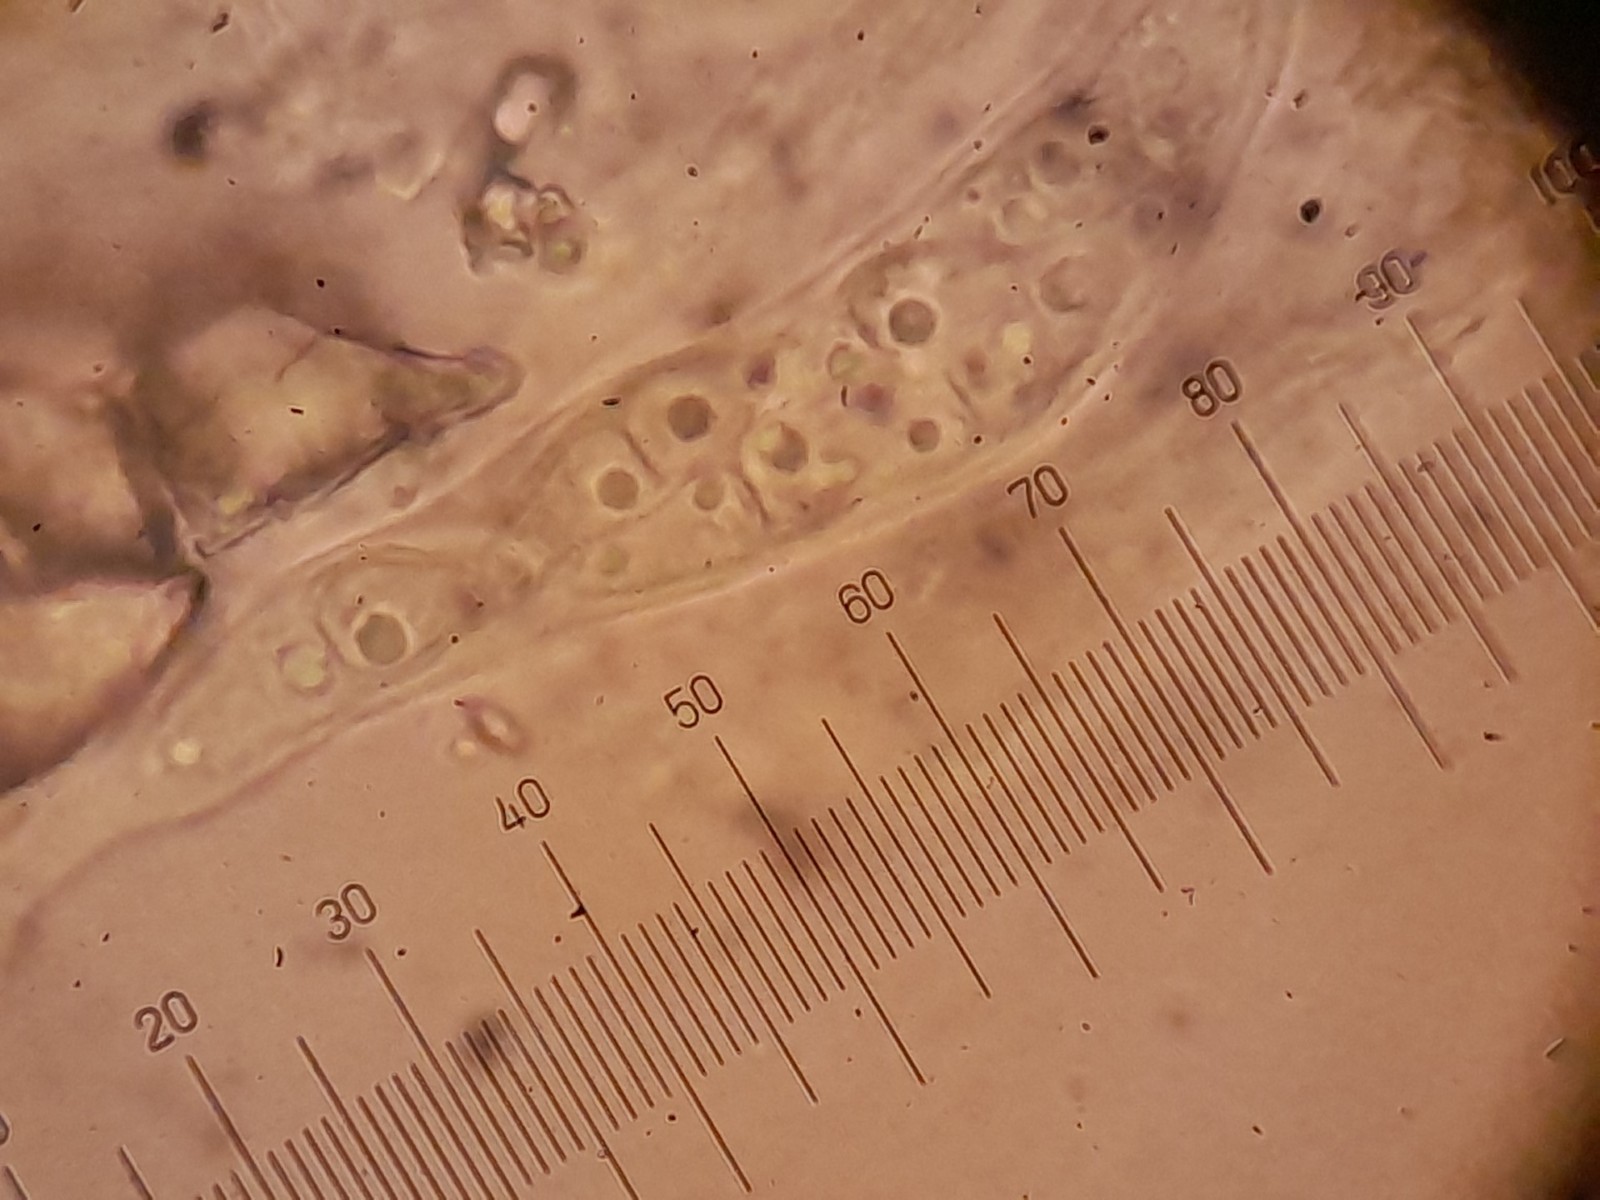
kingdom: Fungi
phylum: Ascomycota
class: Dothideomycetes
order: Pleosporales
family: Lophiostomataceae
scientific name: Lophiostomataceae
